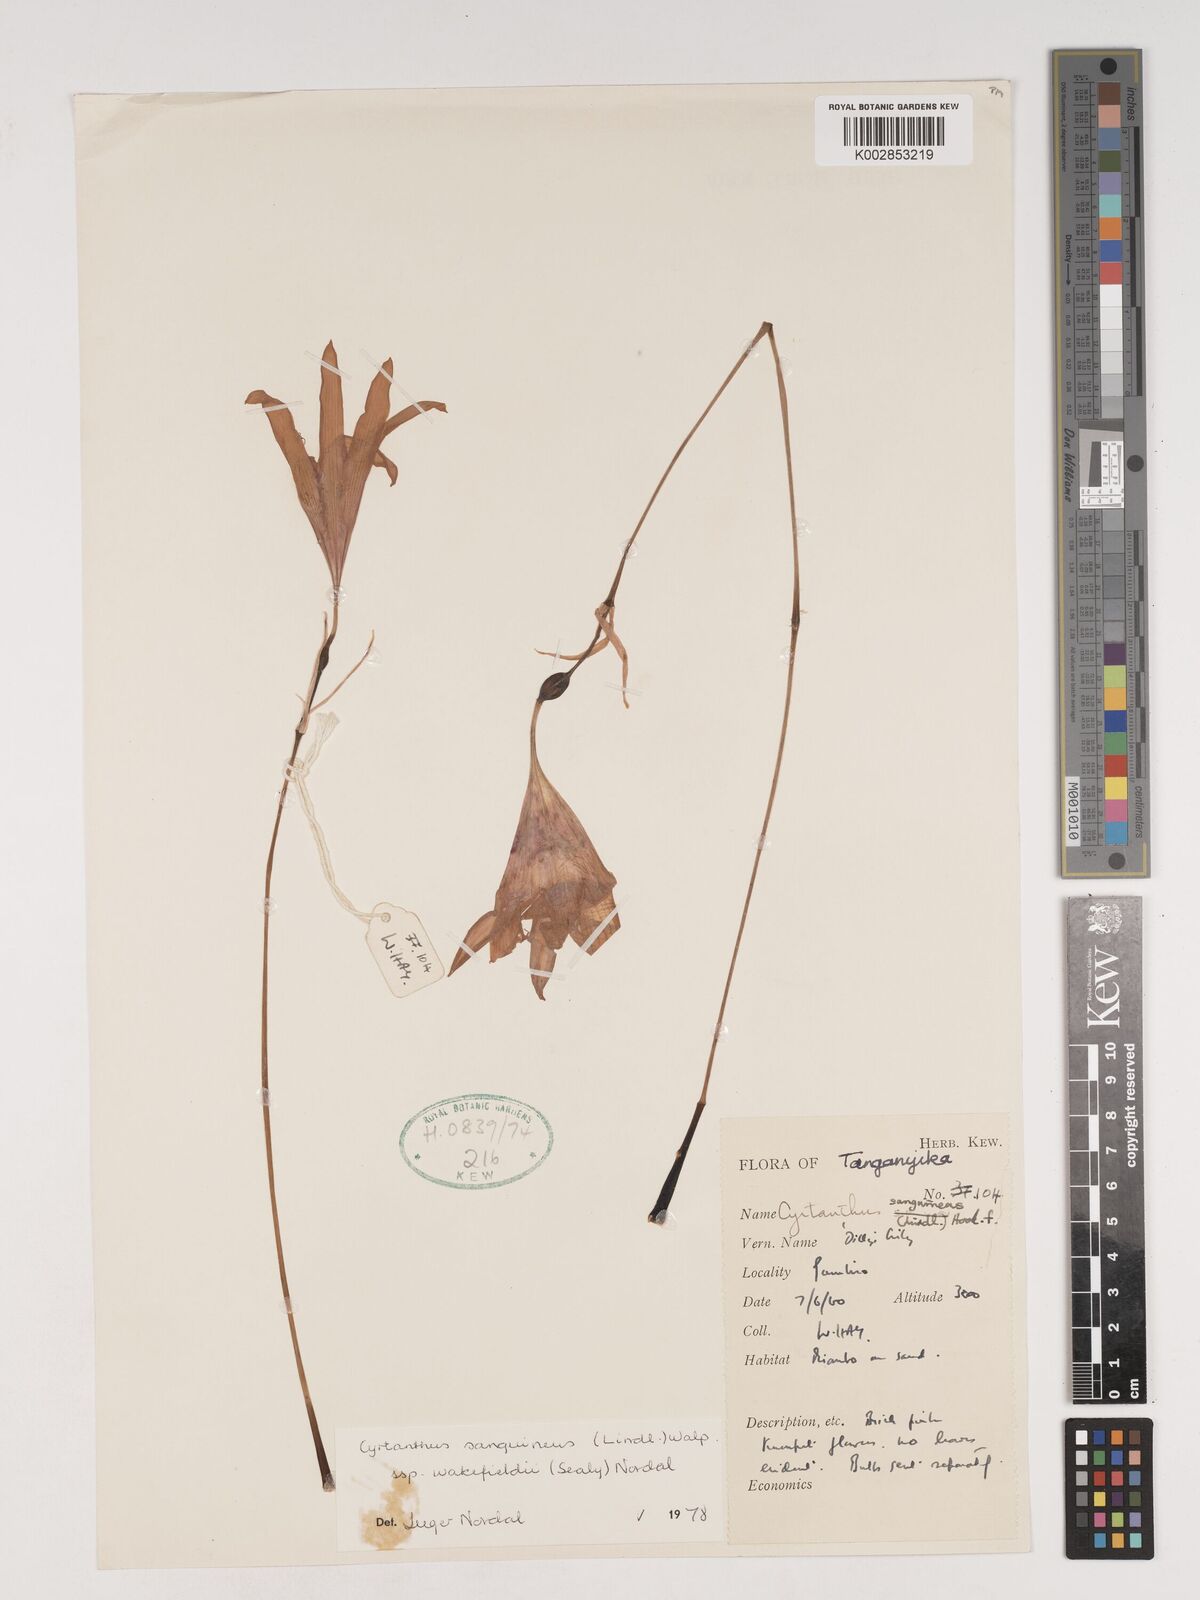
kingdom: Plantae
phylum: Tracheophyta
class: Liliopsida
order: Asparagales
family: Amaryllidaceae
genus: Cyrtanthus
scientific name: Cyrtanthus sanguineus
